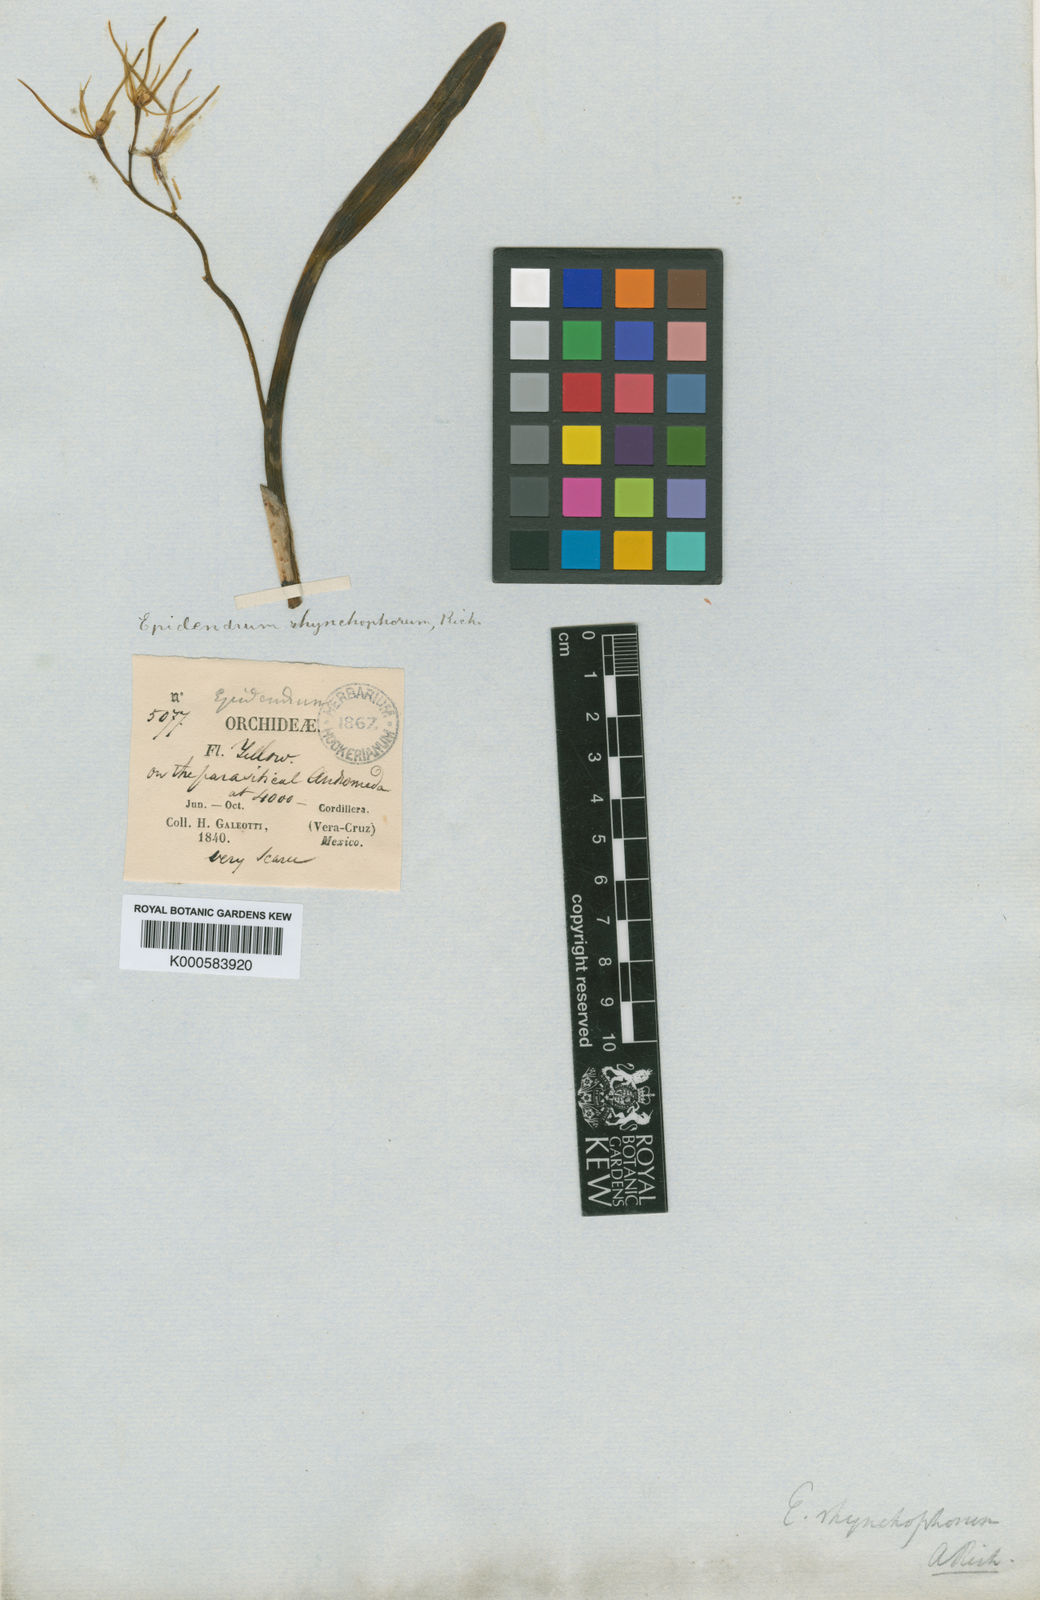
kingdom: Plantae
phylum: Tracheophyta
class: Liliopsida
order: Asparagales
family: Orchidaceae
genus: Prosthechea
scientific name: Prosthechea rhynchophora
